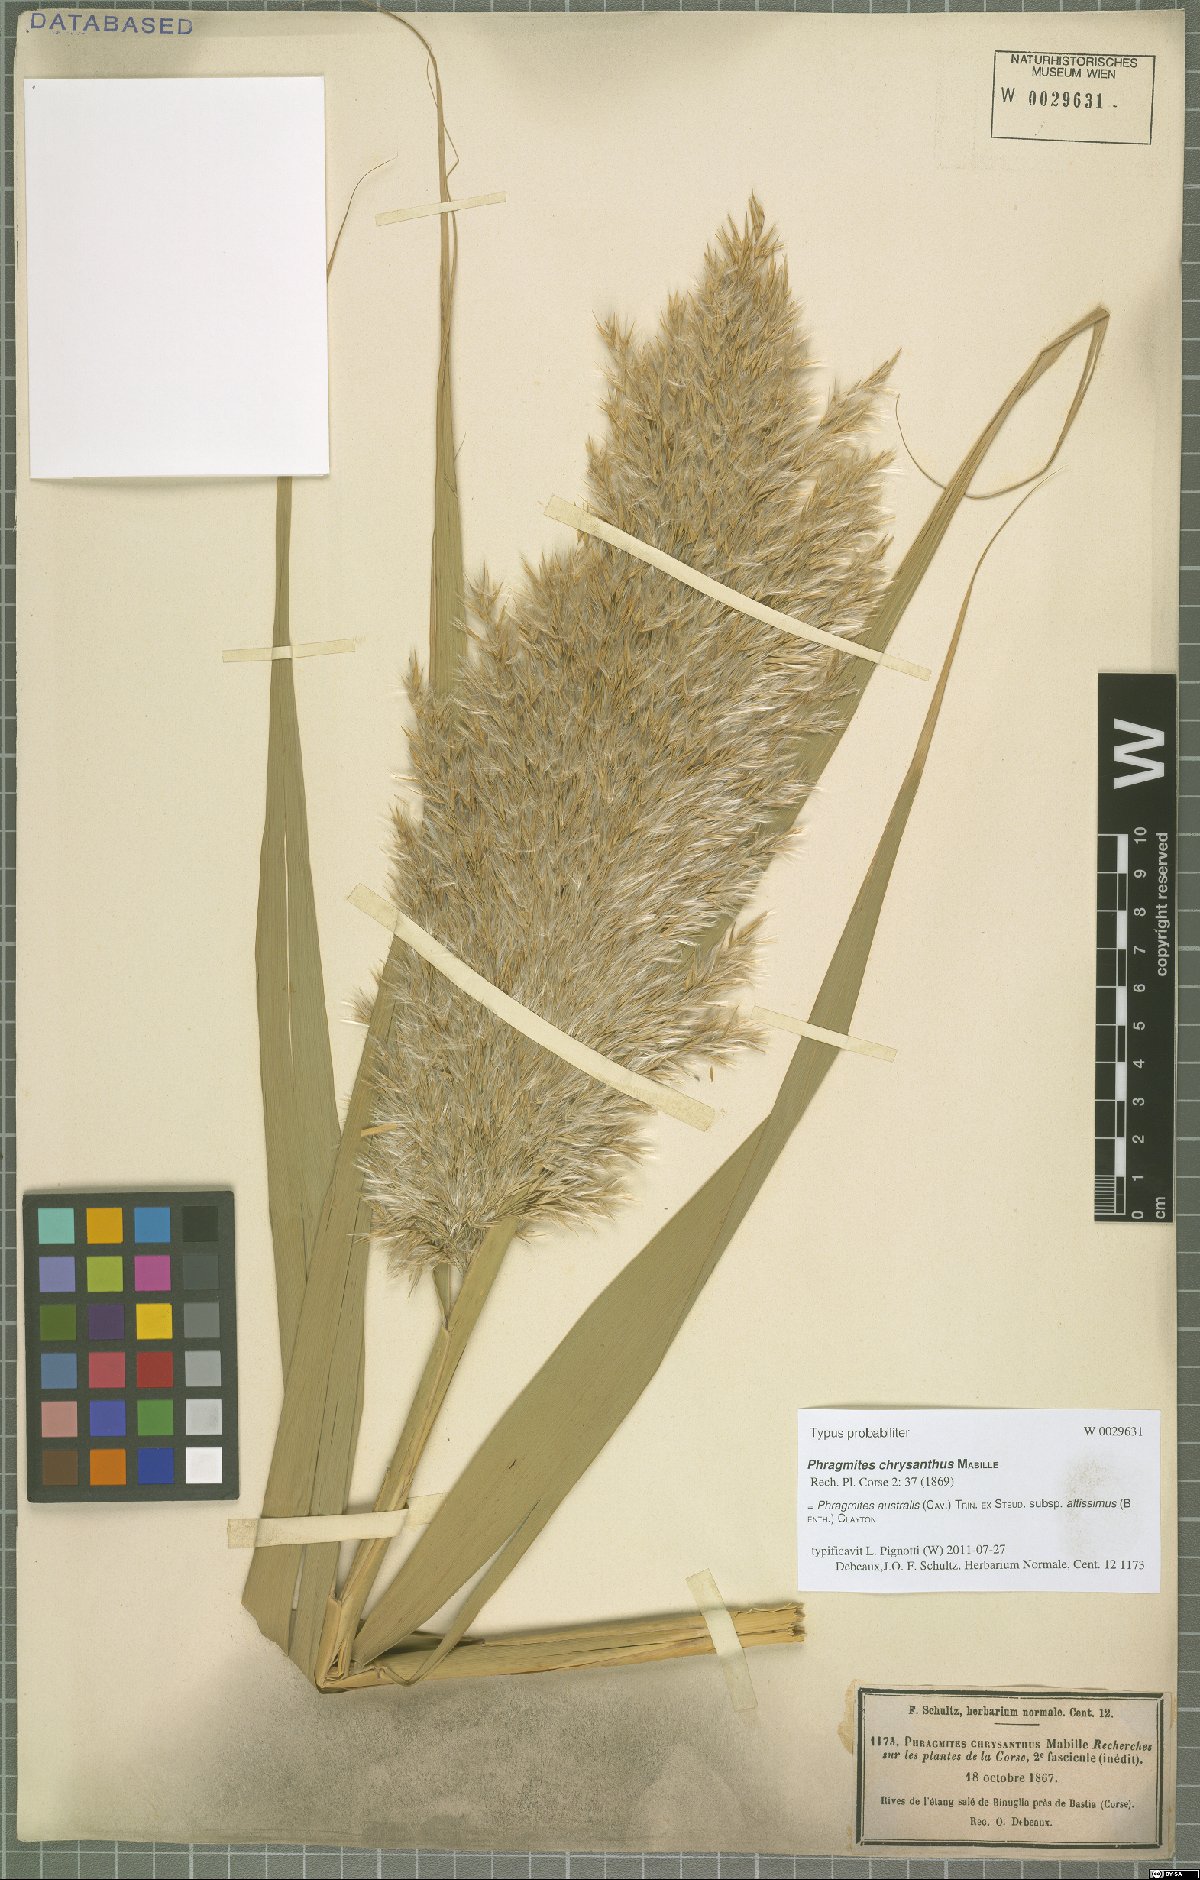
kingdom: Plantae
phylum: Tracheophyta
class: Liliopsida
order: Poales
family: Poaceae
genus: Phragmites
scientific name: Phragmites australis
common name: Common reed
